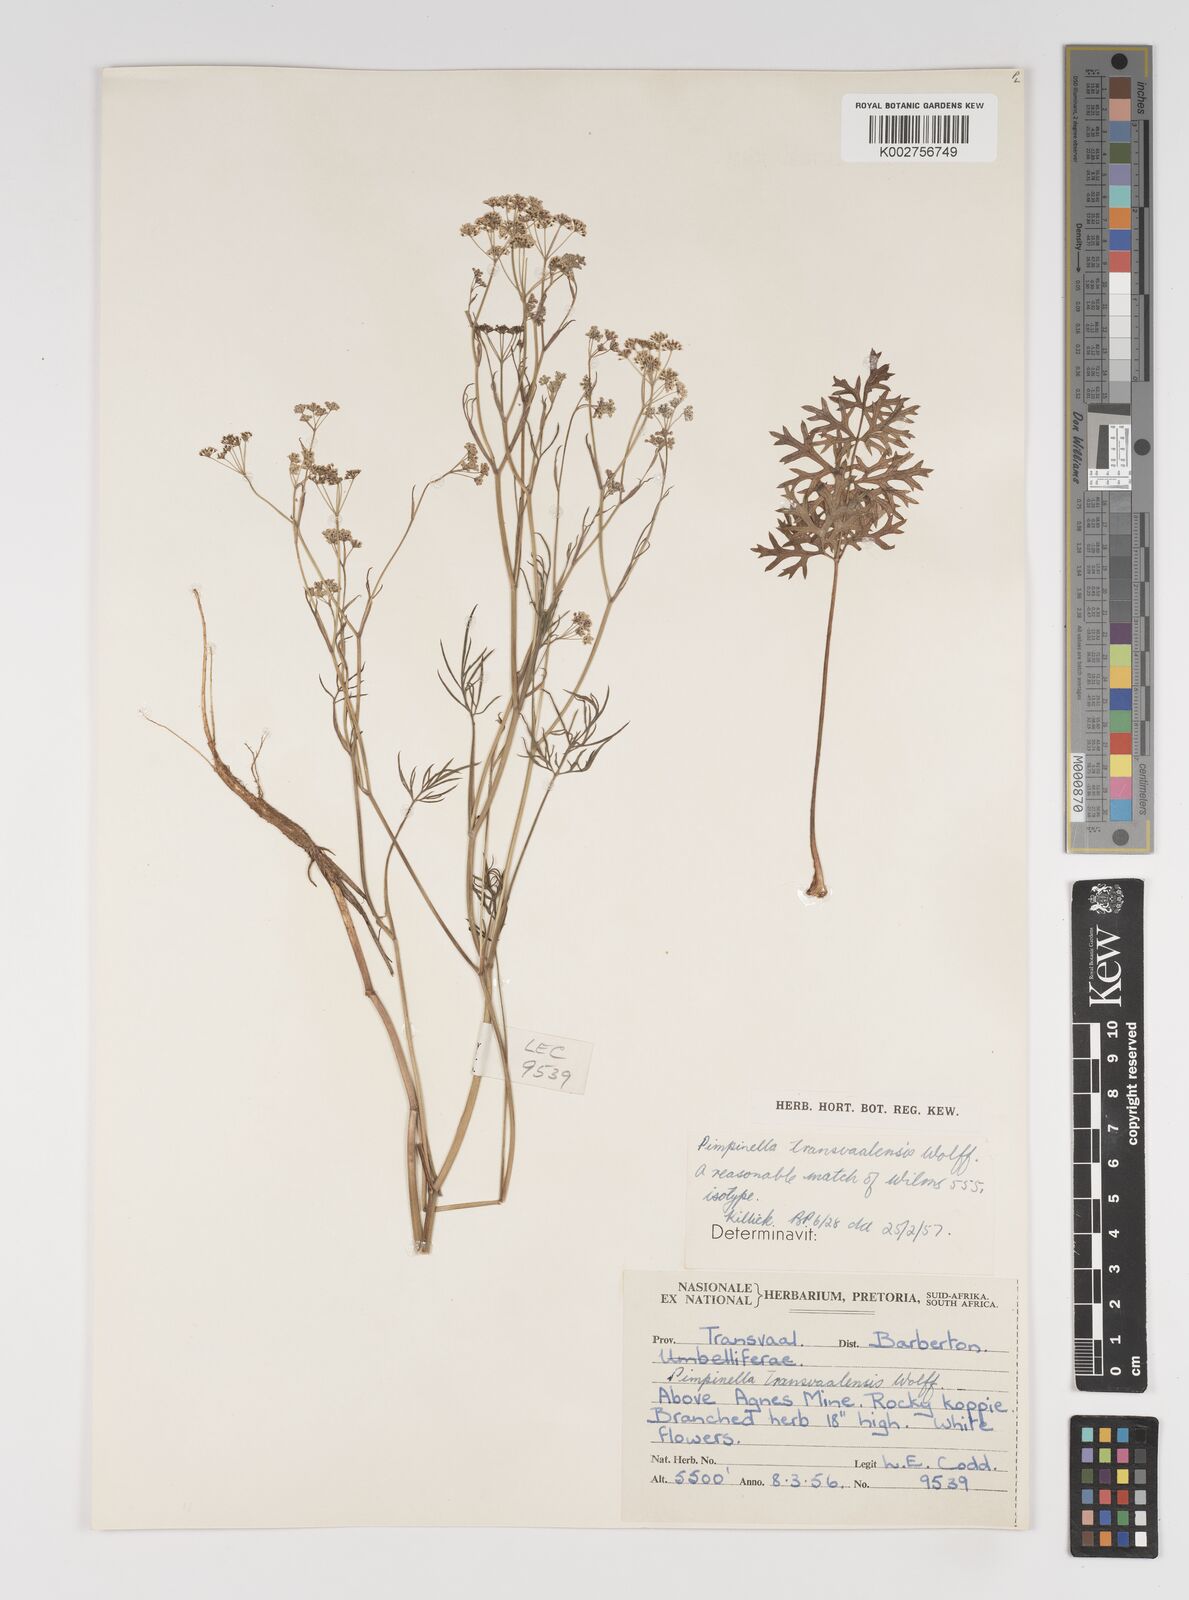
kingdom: Plantae
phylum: Tracheophyta
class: Magnoliopsida
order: Apiales
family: Apiaceae
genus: Pimpinella
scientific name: Pimpinella transvaalensis
